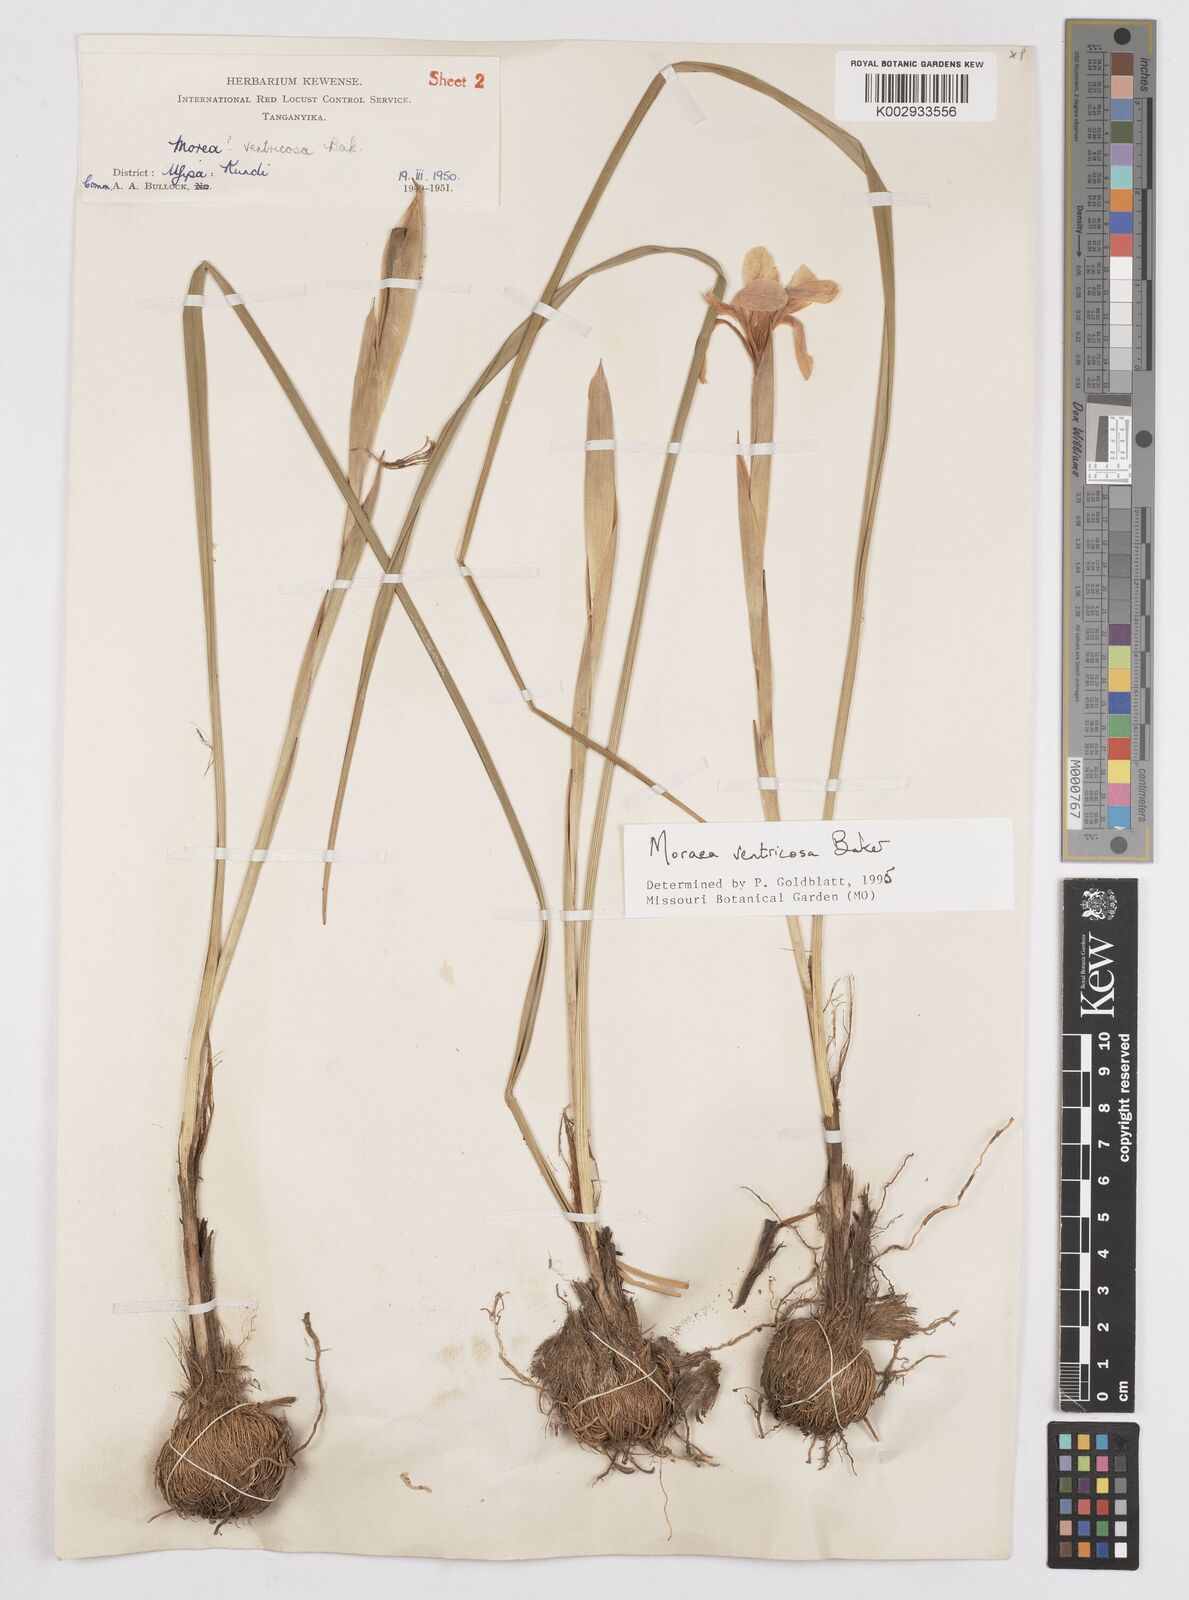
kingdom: Plantae
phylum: Tracheophyta
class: Liliopsida
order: Asparagales
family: Iridaceae
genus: Moraea
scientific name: Moraea ventricosa
